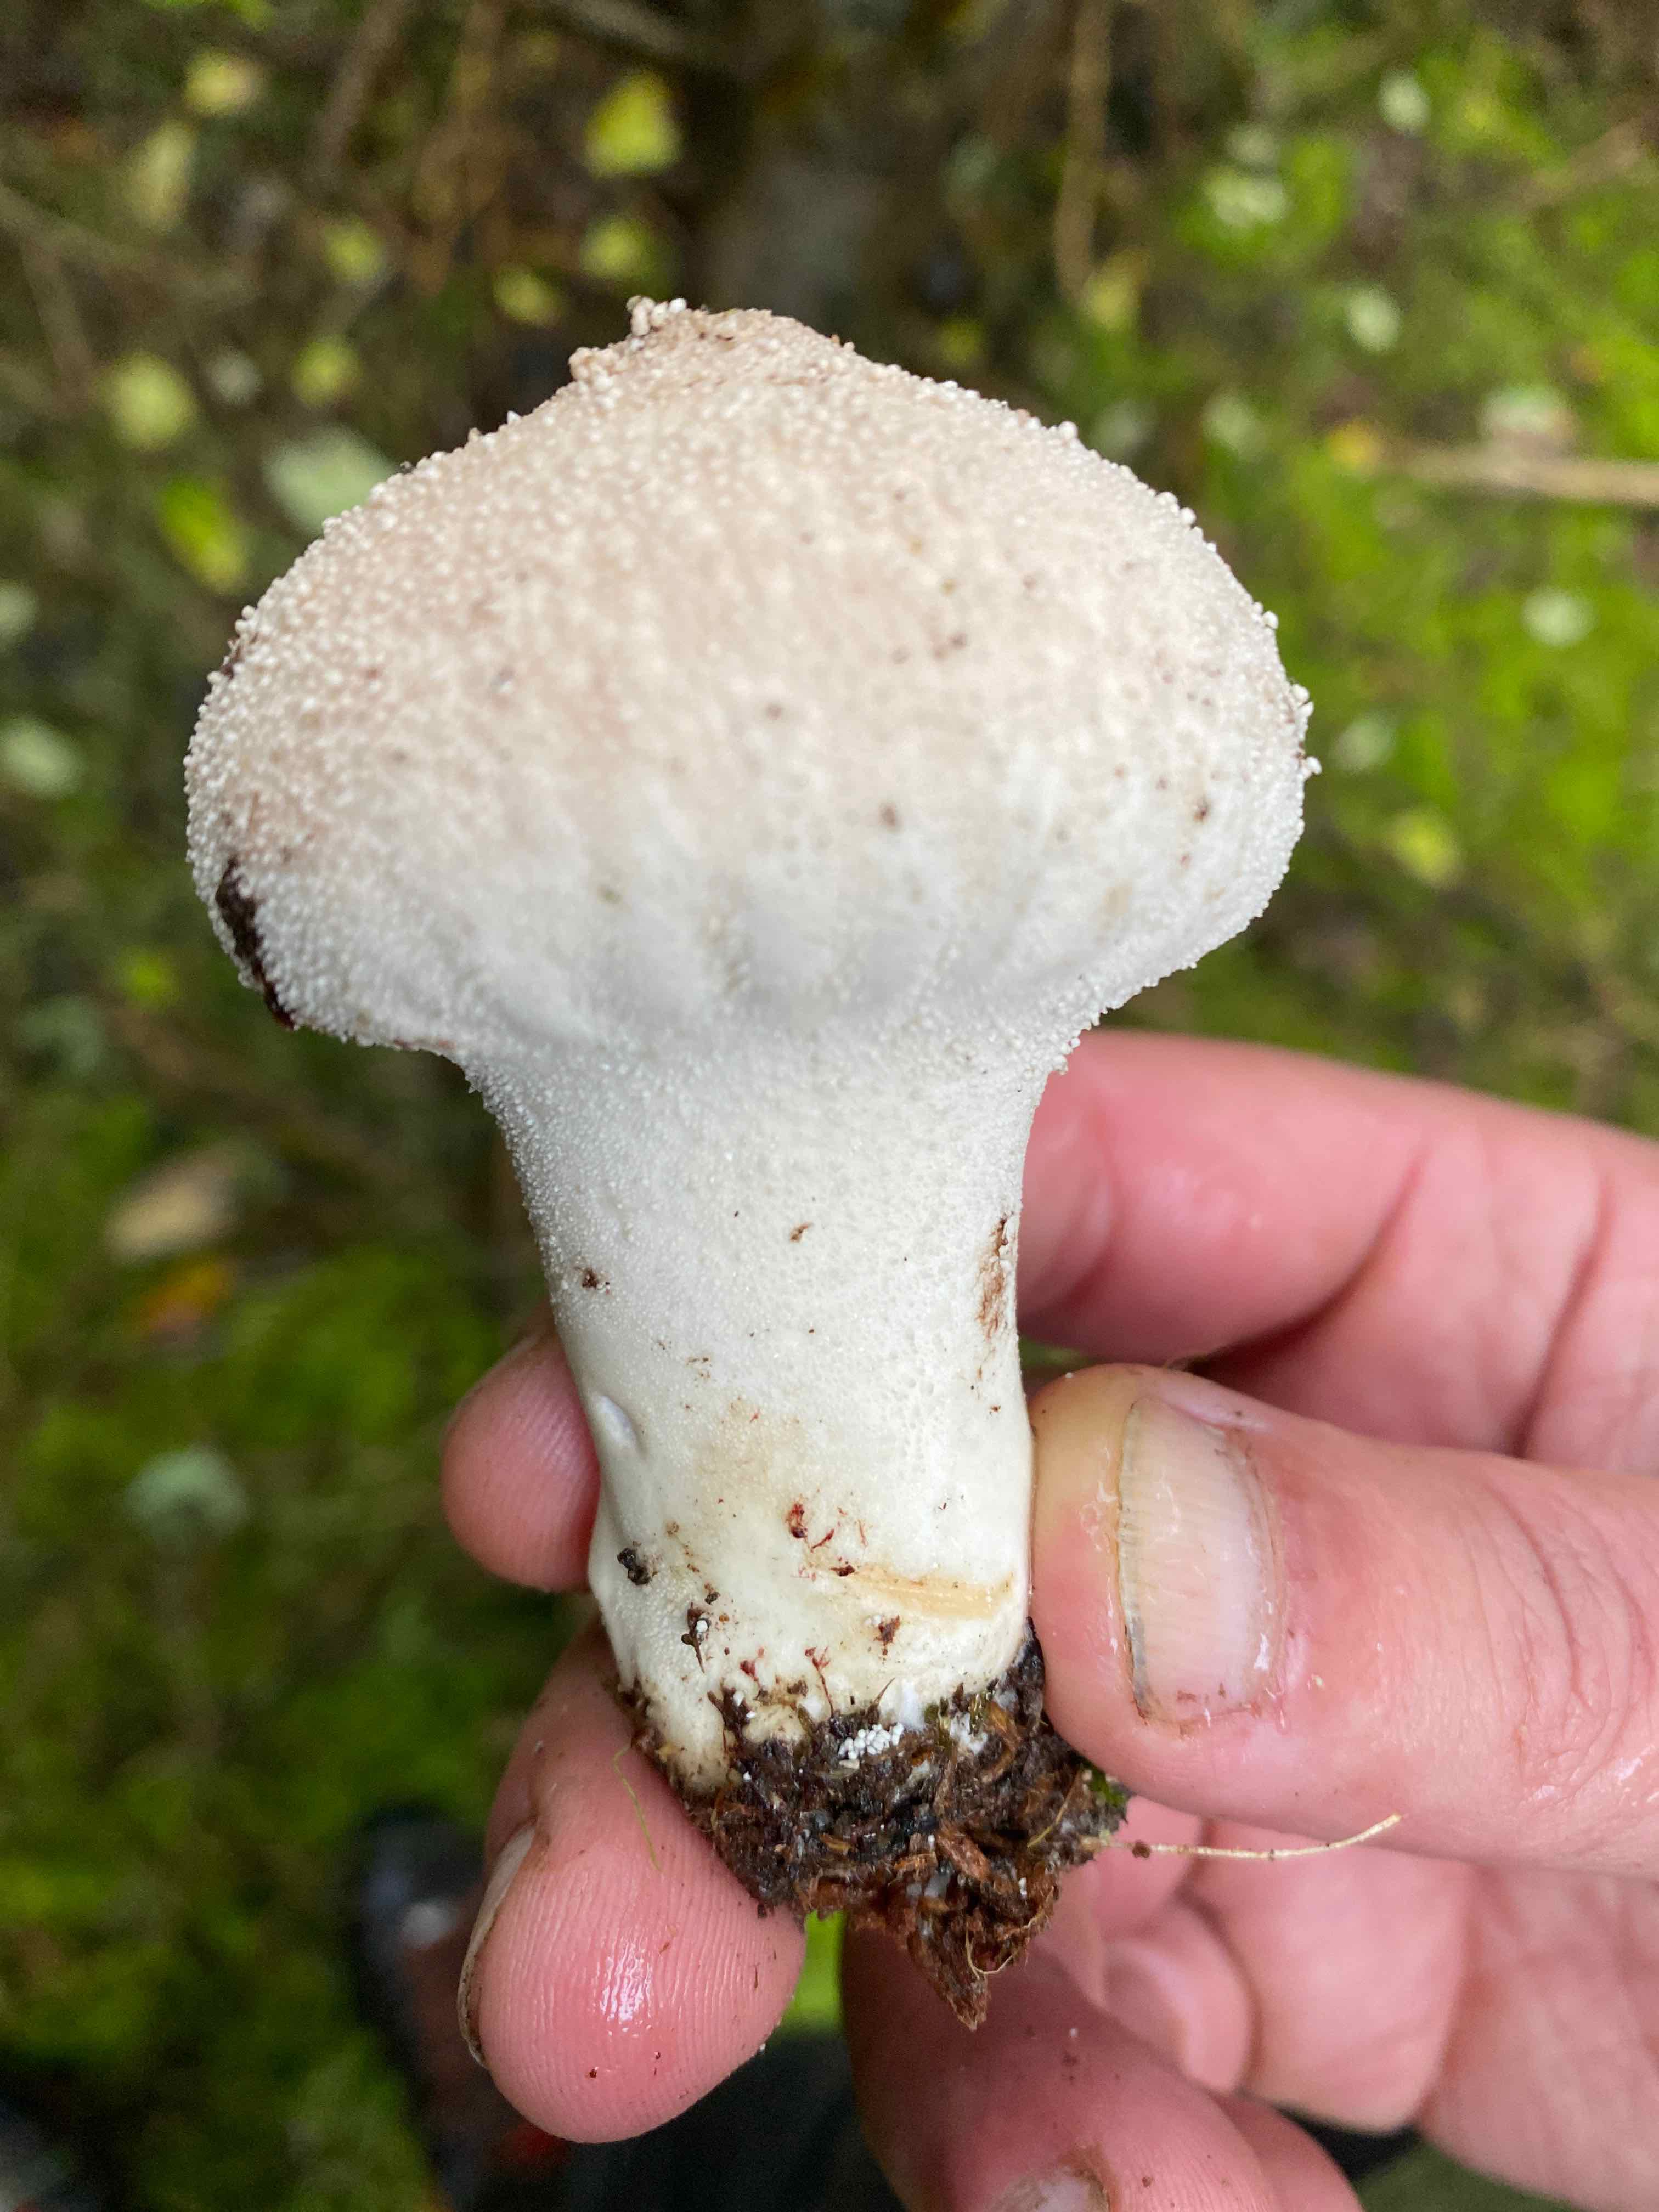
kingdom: Fungi
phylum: Basidiomycota
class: Agaricomycetes
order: Agaricales
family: Lycoperdaceae
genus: Lycoperdon
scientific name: Lycoperdon perlatum
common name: krystal-støvbold
